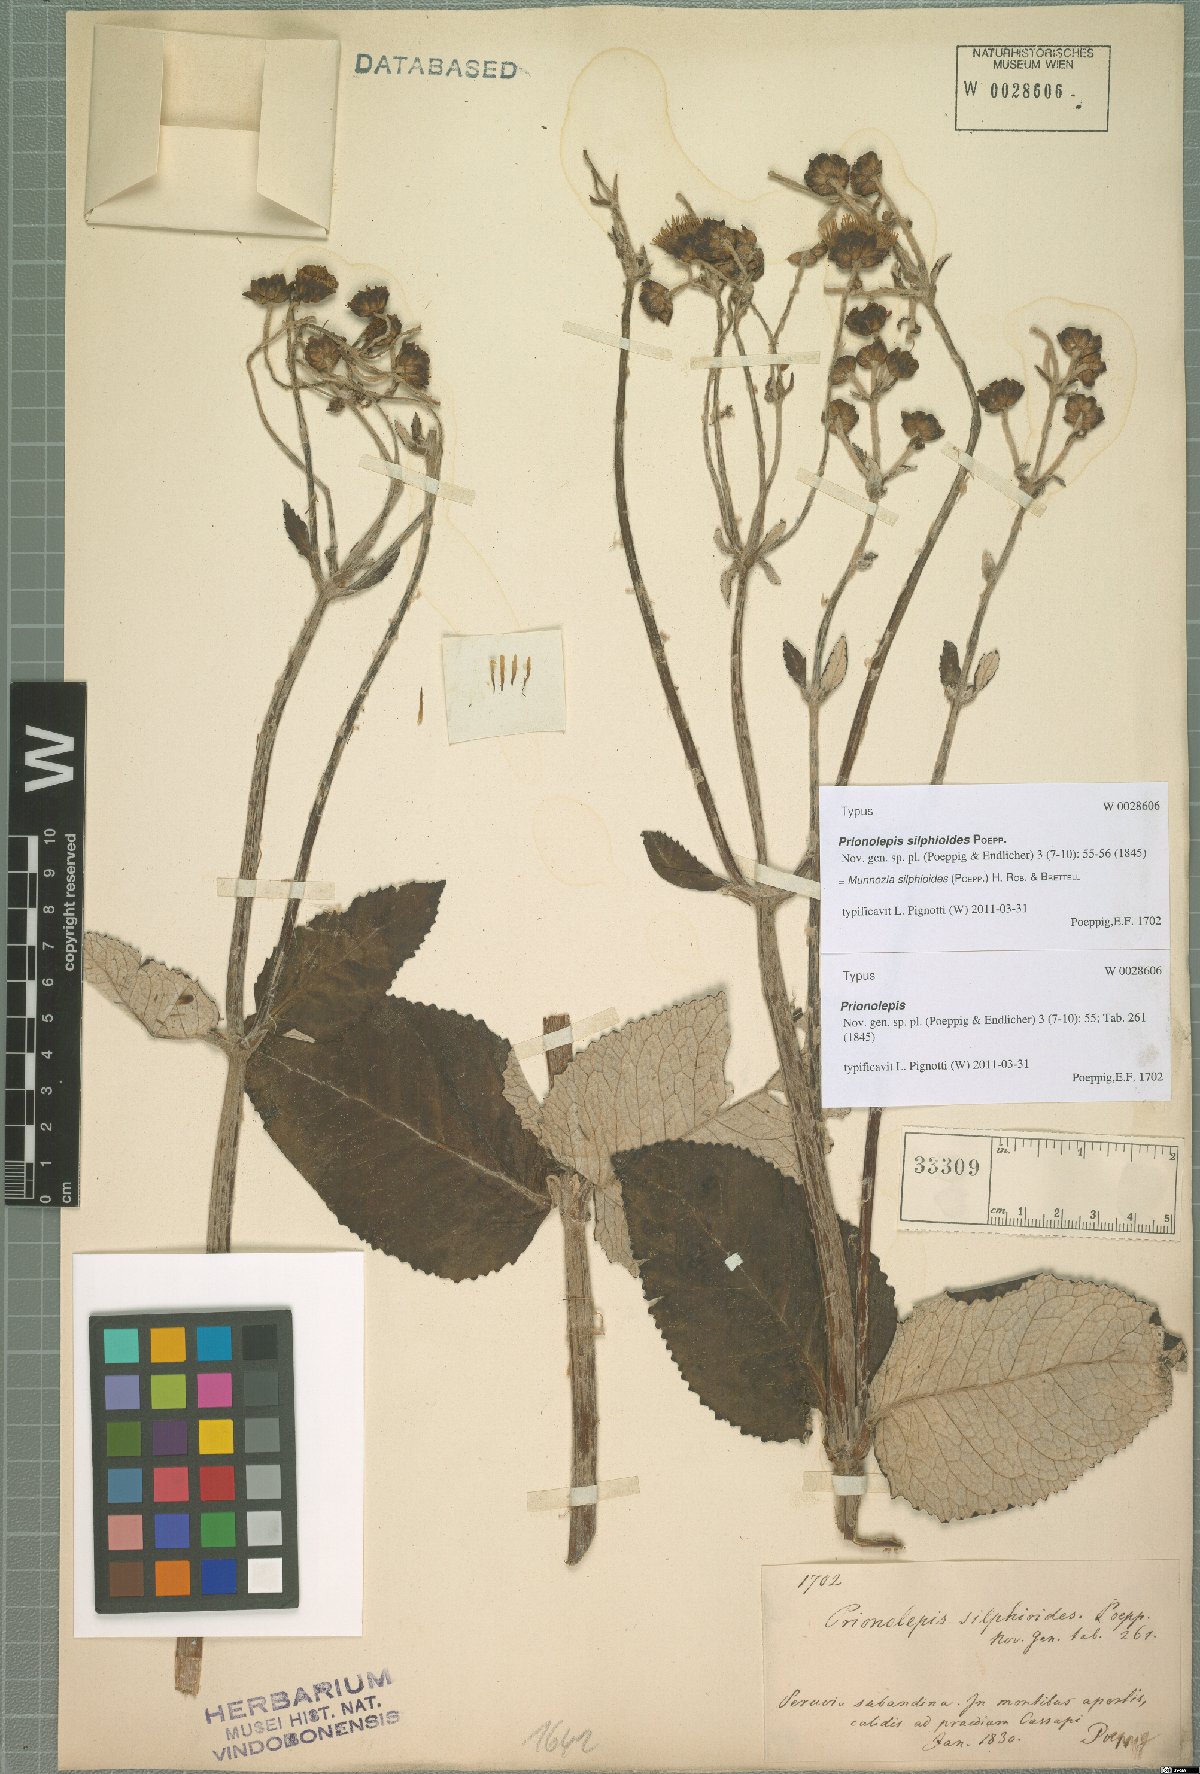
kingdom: Plantae
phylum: Tracheophyta
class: Magnoliopsida
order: Asterales
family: Asteraceae
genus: Munnozia
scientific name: Munnozia silphioides
